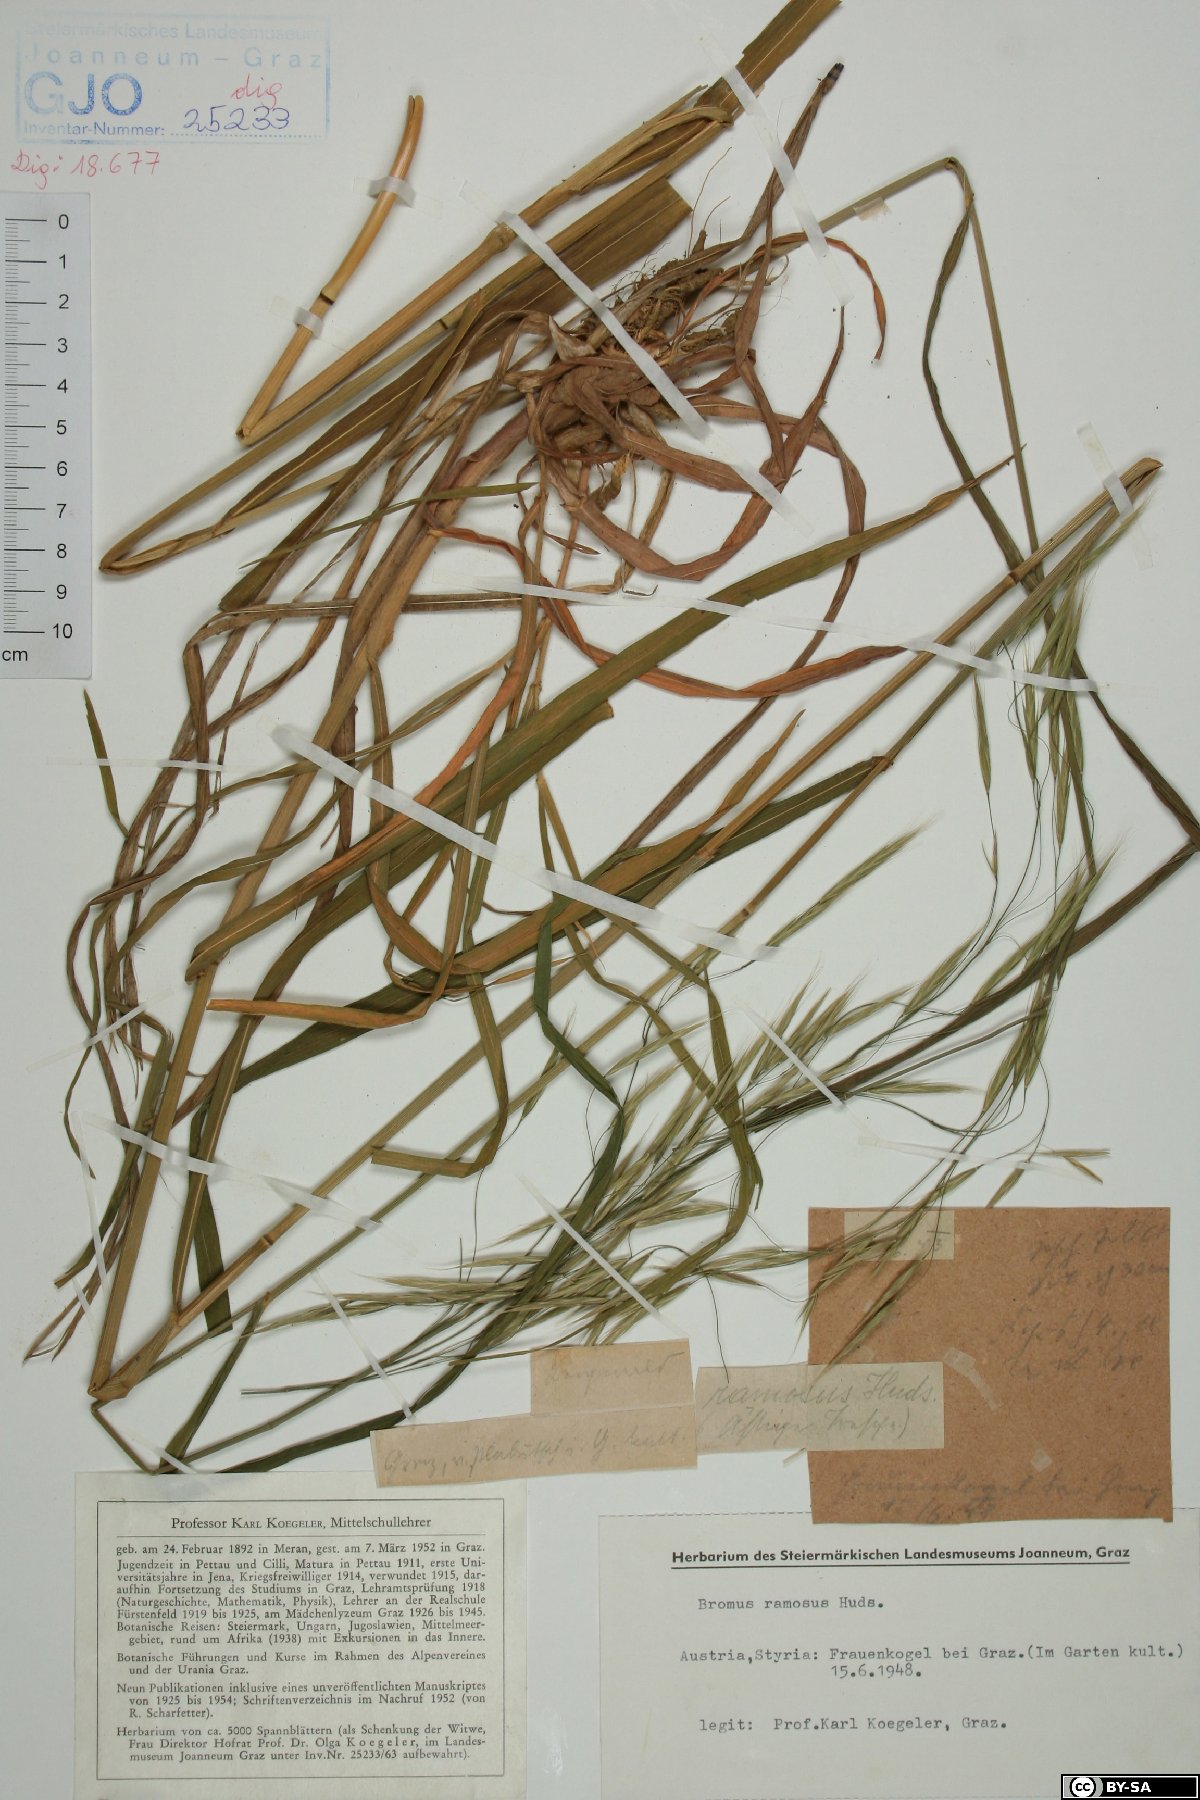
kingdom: Plantae
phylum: Tracheophyta
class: Liliopsida
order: Poales
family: Poaceae
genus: Bromus
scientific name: Bromus ramosus
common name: Hairy brome
